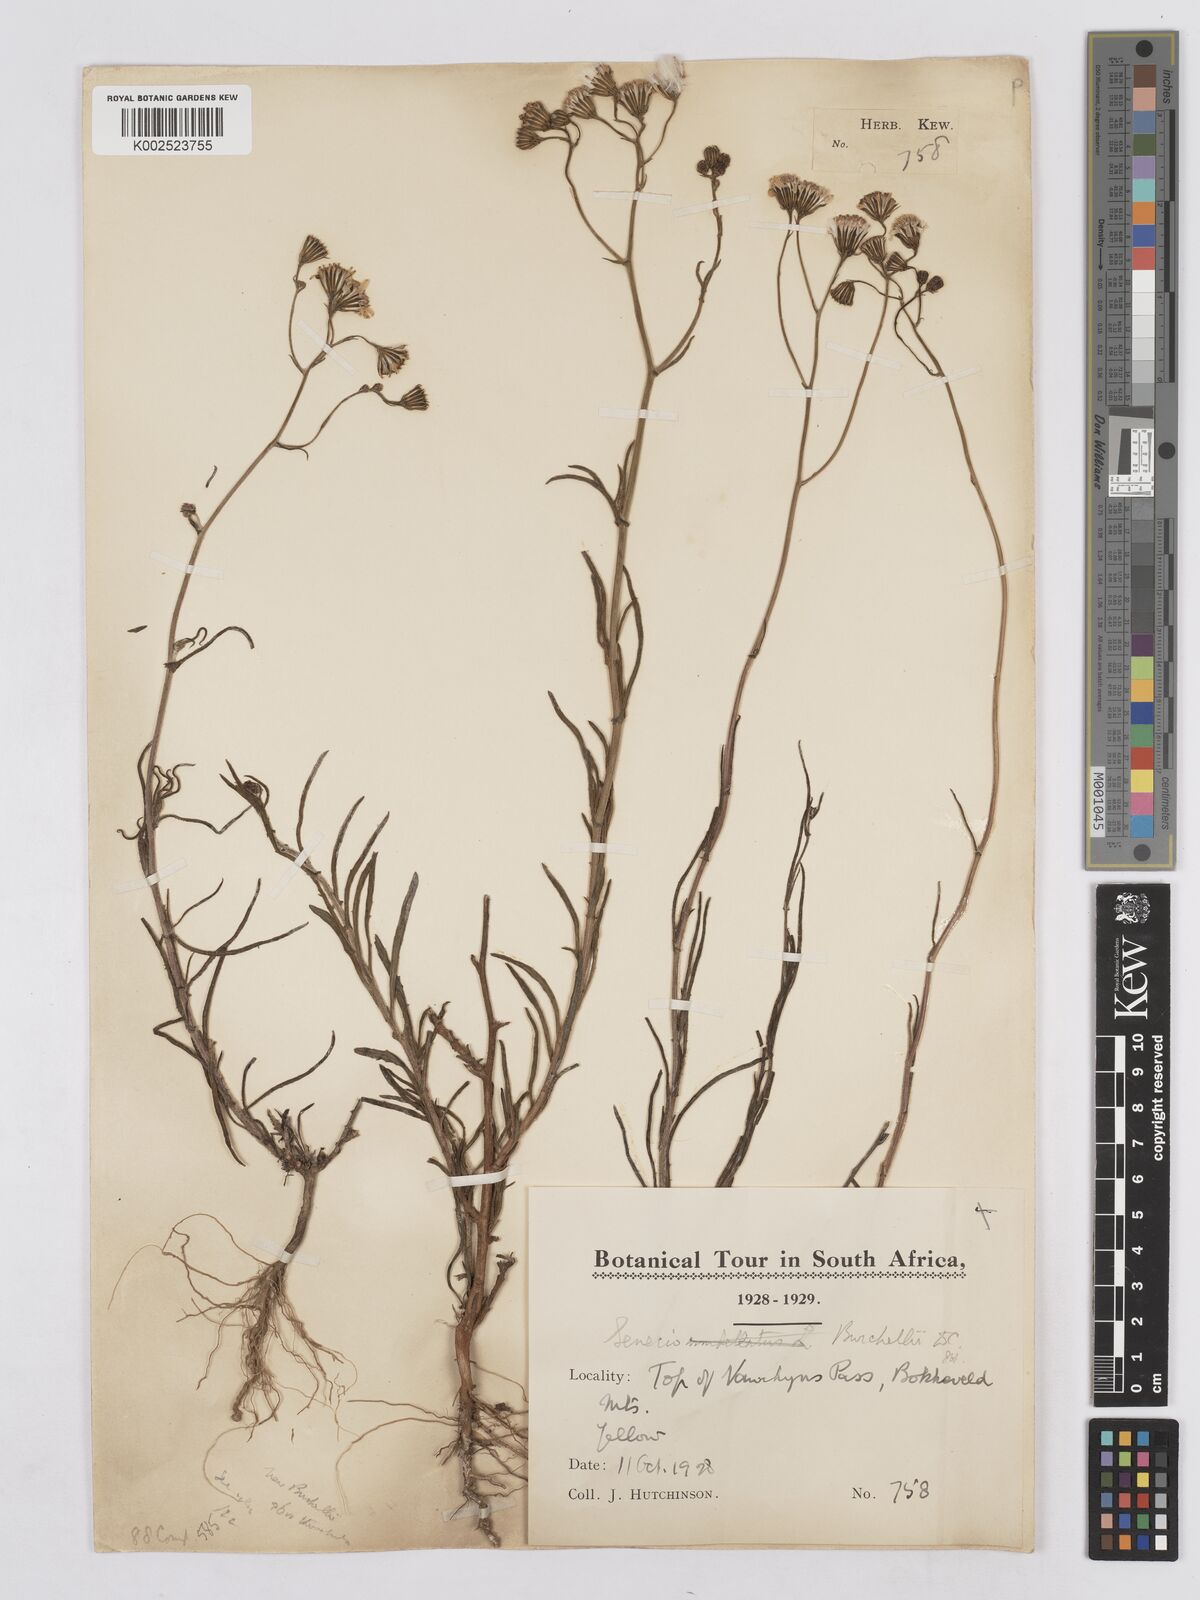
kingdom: Plantae
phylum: Tracheophyta
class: Magnoliopsida
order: Asterales
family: Asteraceae
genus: Senecio
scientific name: Senecio burchellii
